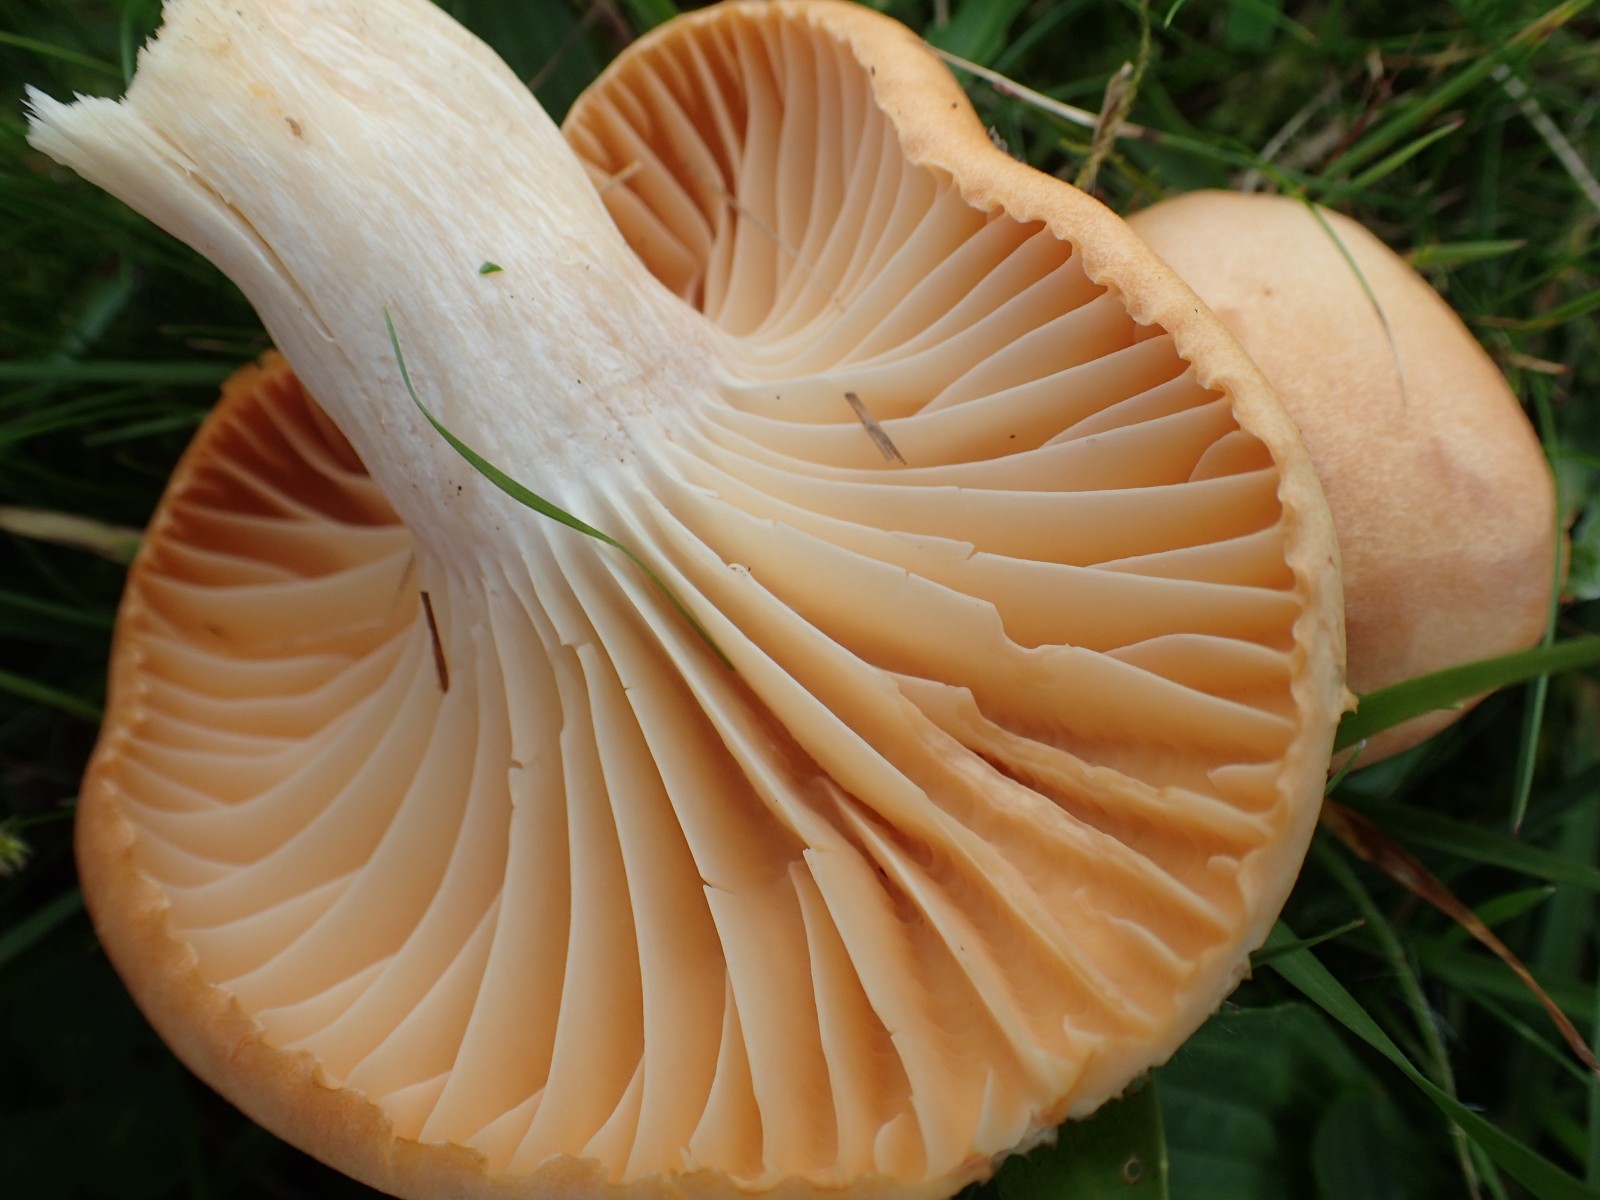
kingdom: Fungi
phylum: Basidiomycota
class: Agaricomycetes
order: Agaricales
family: Hygrophoraceae
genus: Cuphophyllus
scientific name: Cuphophyllus pratensis
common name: eng-vokshat
